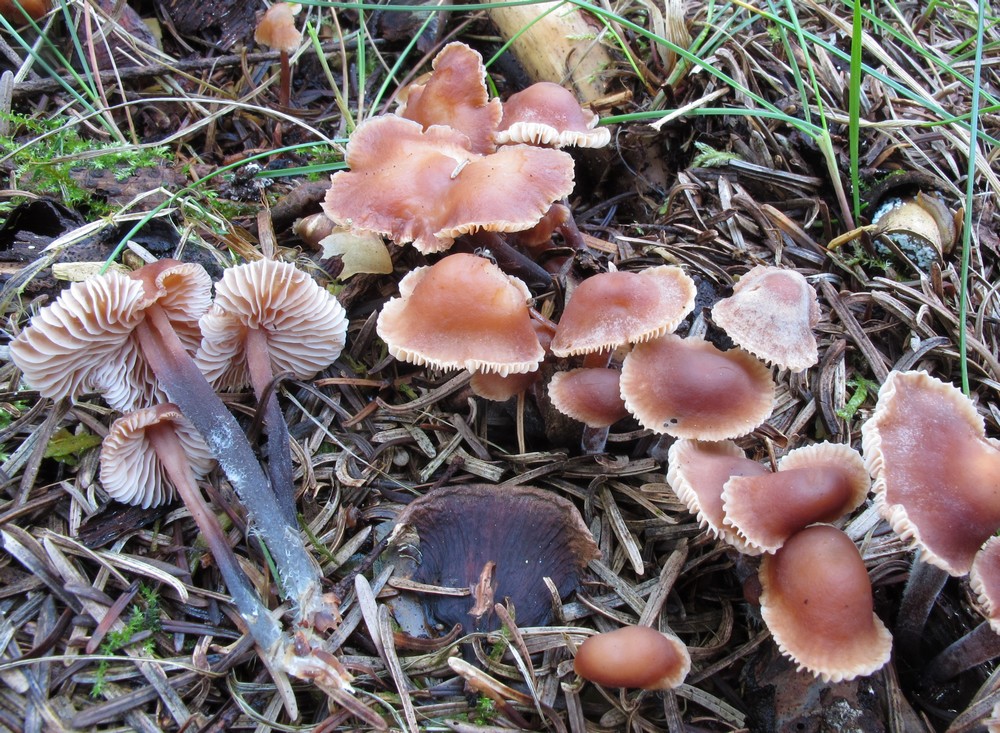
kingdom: Fungi
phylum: Basidiomycota
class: Agaricomycetes
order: Agaricales
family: Omphalotaceae
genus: Gymnopus
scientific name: Gymnopus impudicus
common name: fesen fladhat
